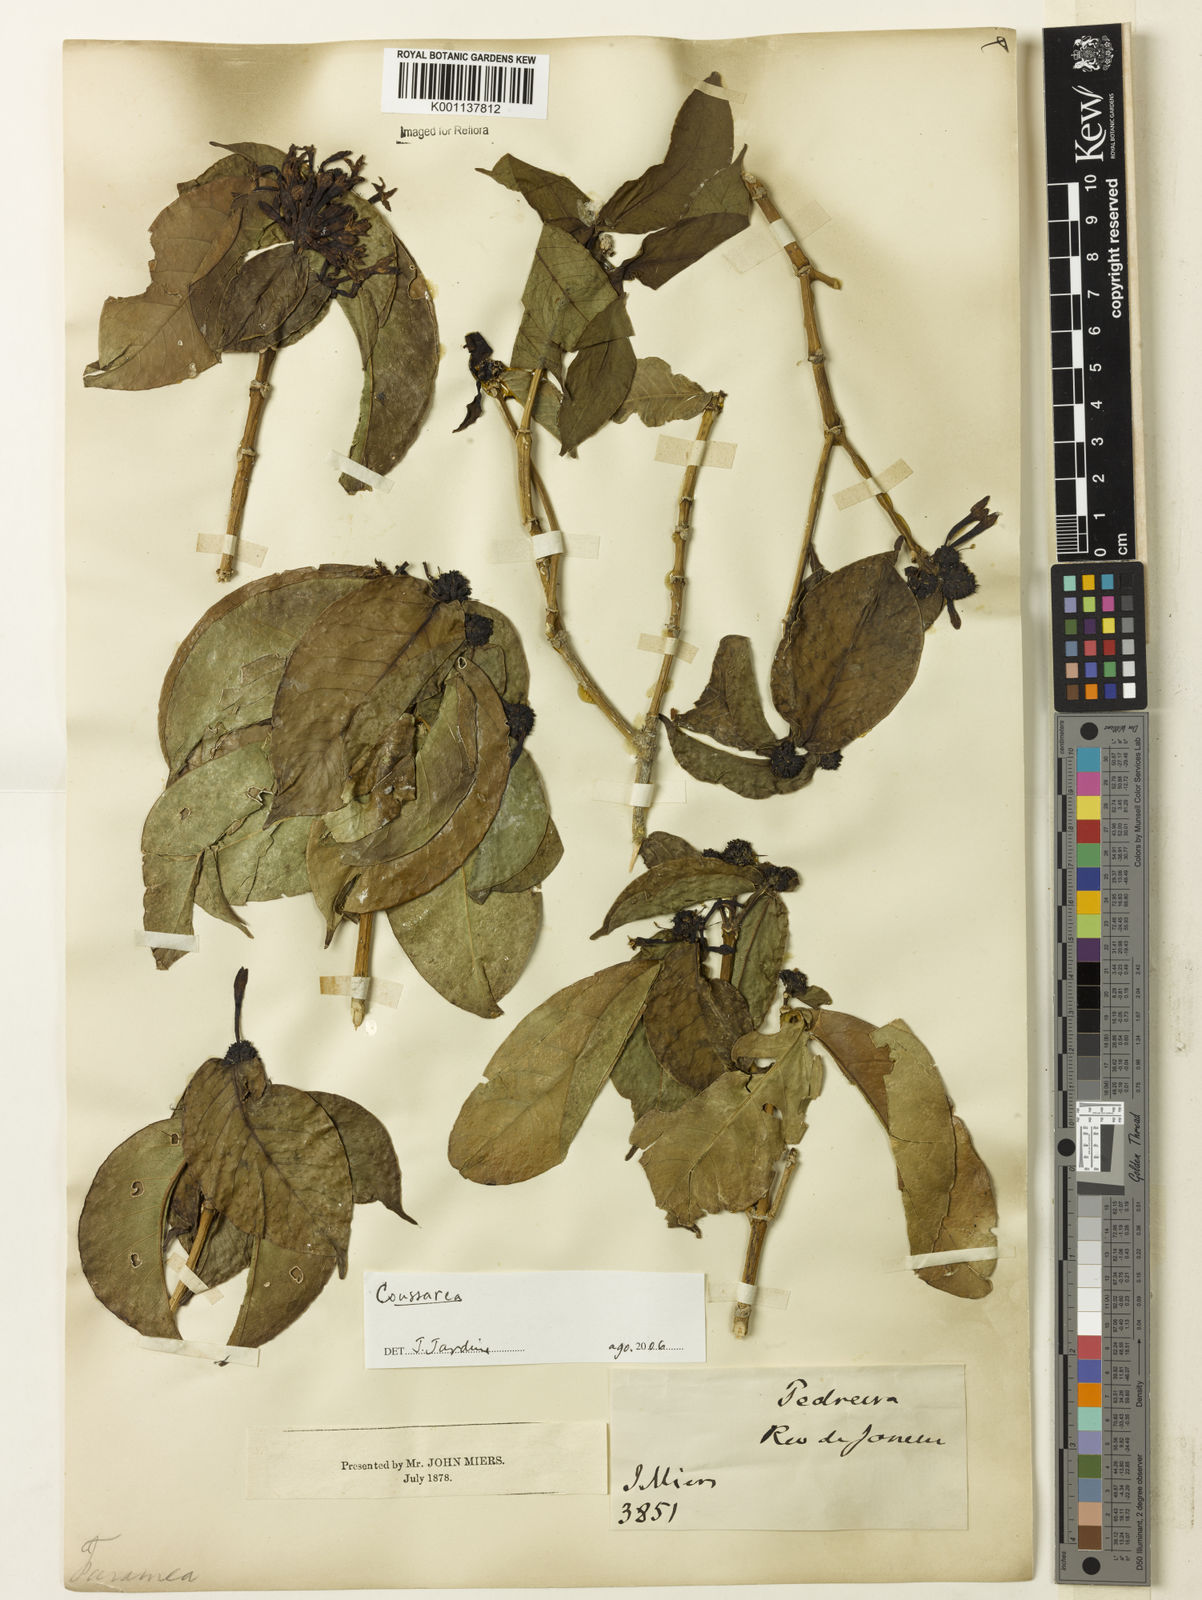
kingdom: Plantae
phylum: Tracheophyta
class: Magnoliopsida
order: Gentianales
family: Rubiaceae
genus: Coussarea
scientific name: Coussarea
